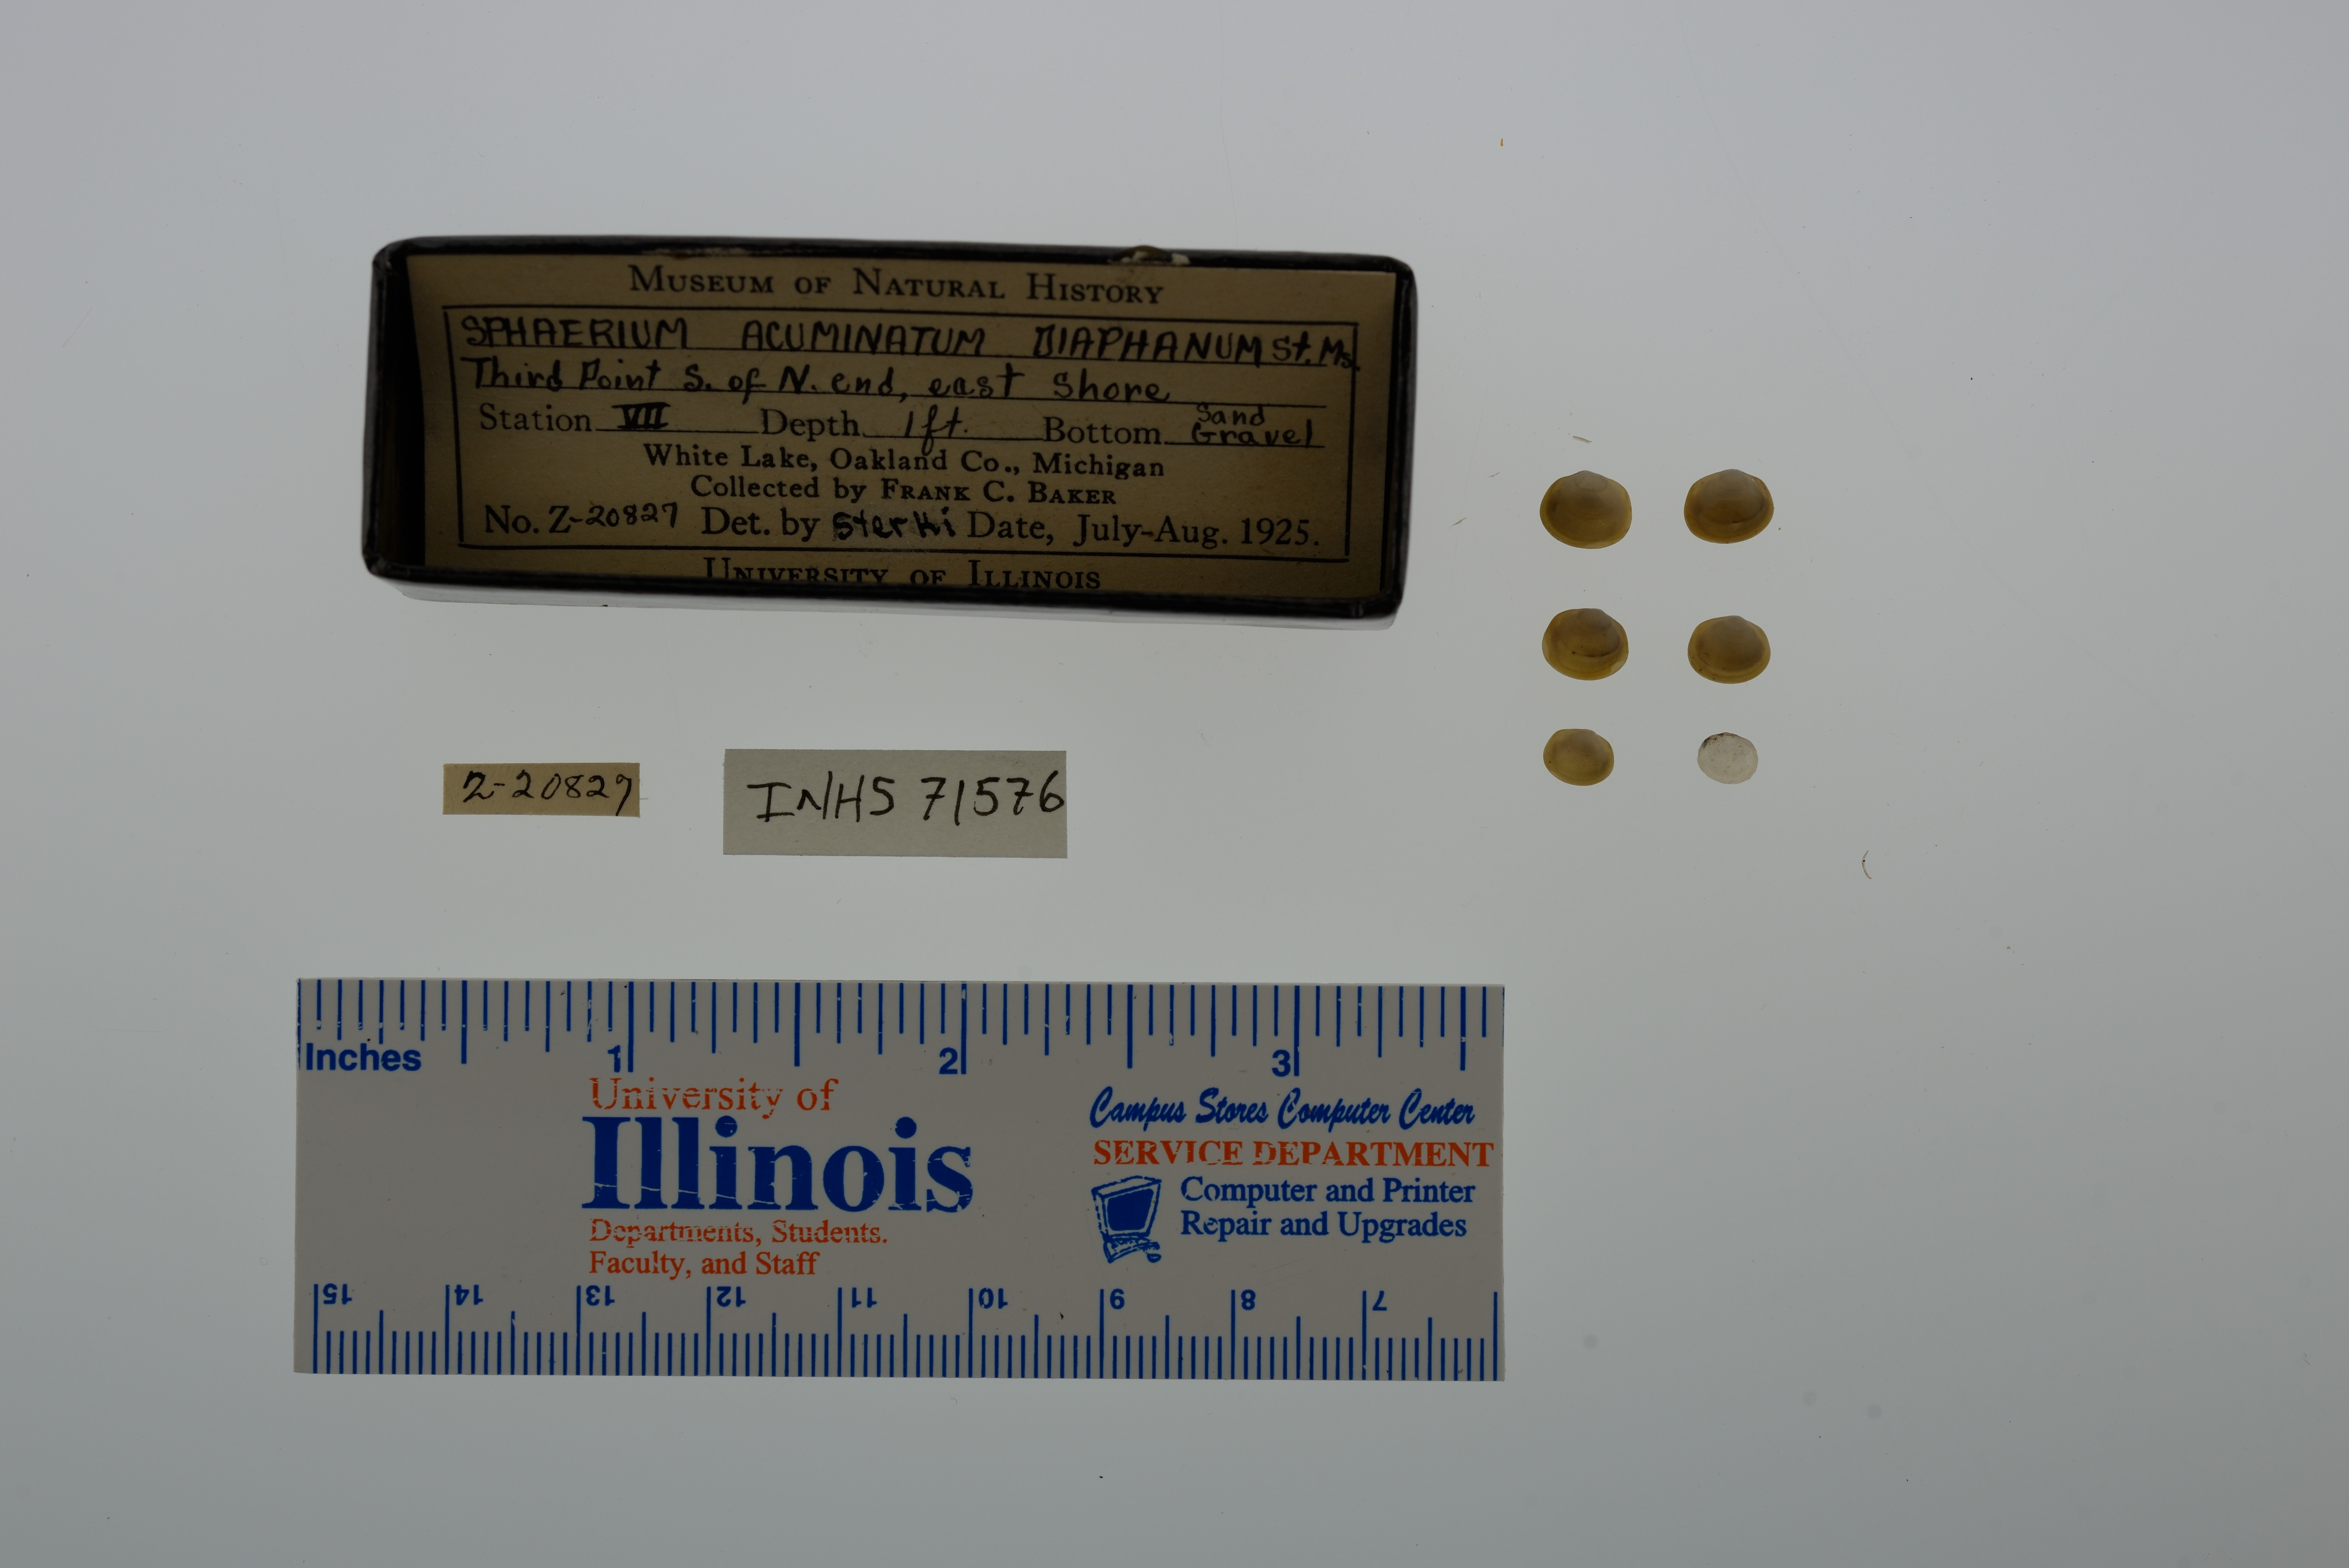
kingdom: Animalia
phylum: Mollusca
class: Bivalvia
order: Sphaeriida
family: Sphaeriidae
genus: Sphaerium
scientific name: Sphaerium striatinum
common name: Striated fingernailclam
